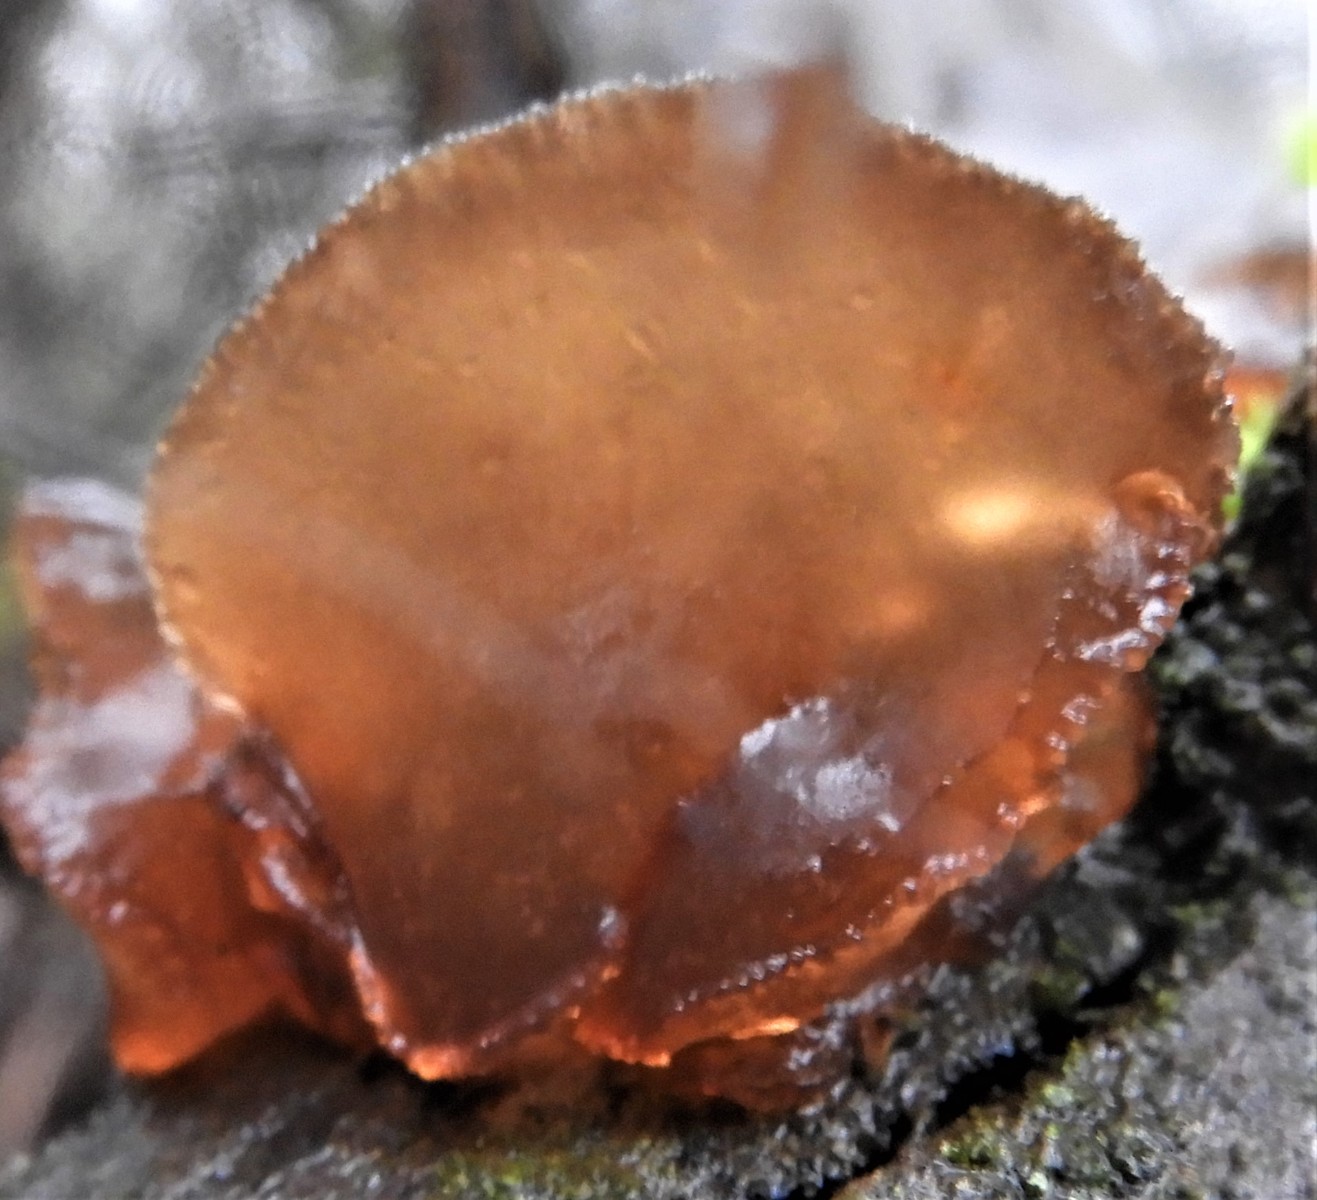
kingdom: Fungi
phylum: Basidiomycota
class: Agaricomycetes
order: Auriculariales
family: Auriculariaceae
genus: Exidia
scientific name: Exidia recisa
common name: pile-bævretop
